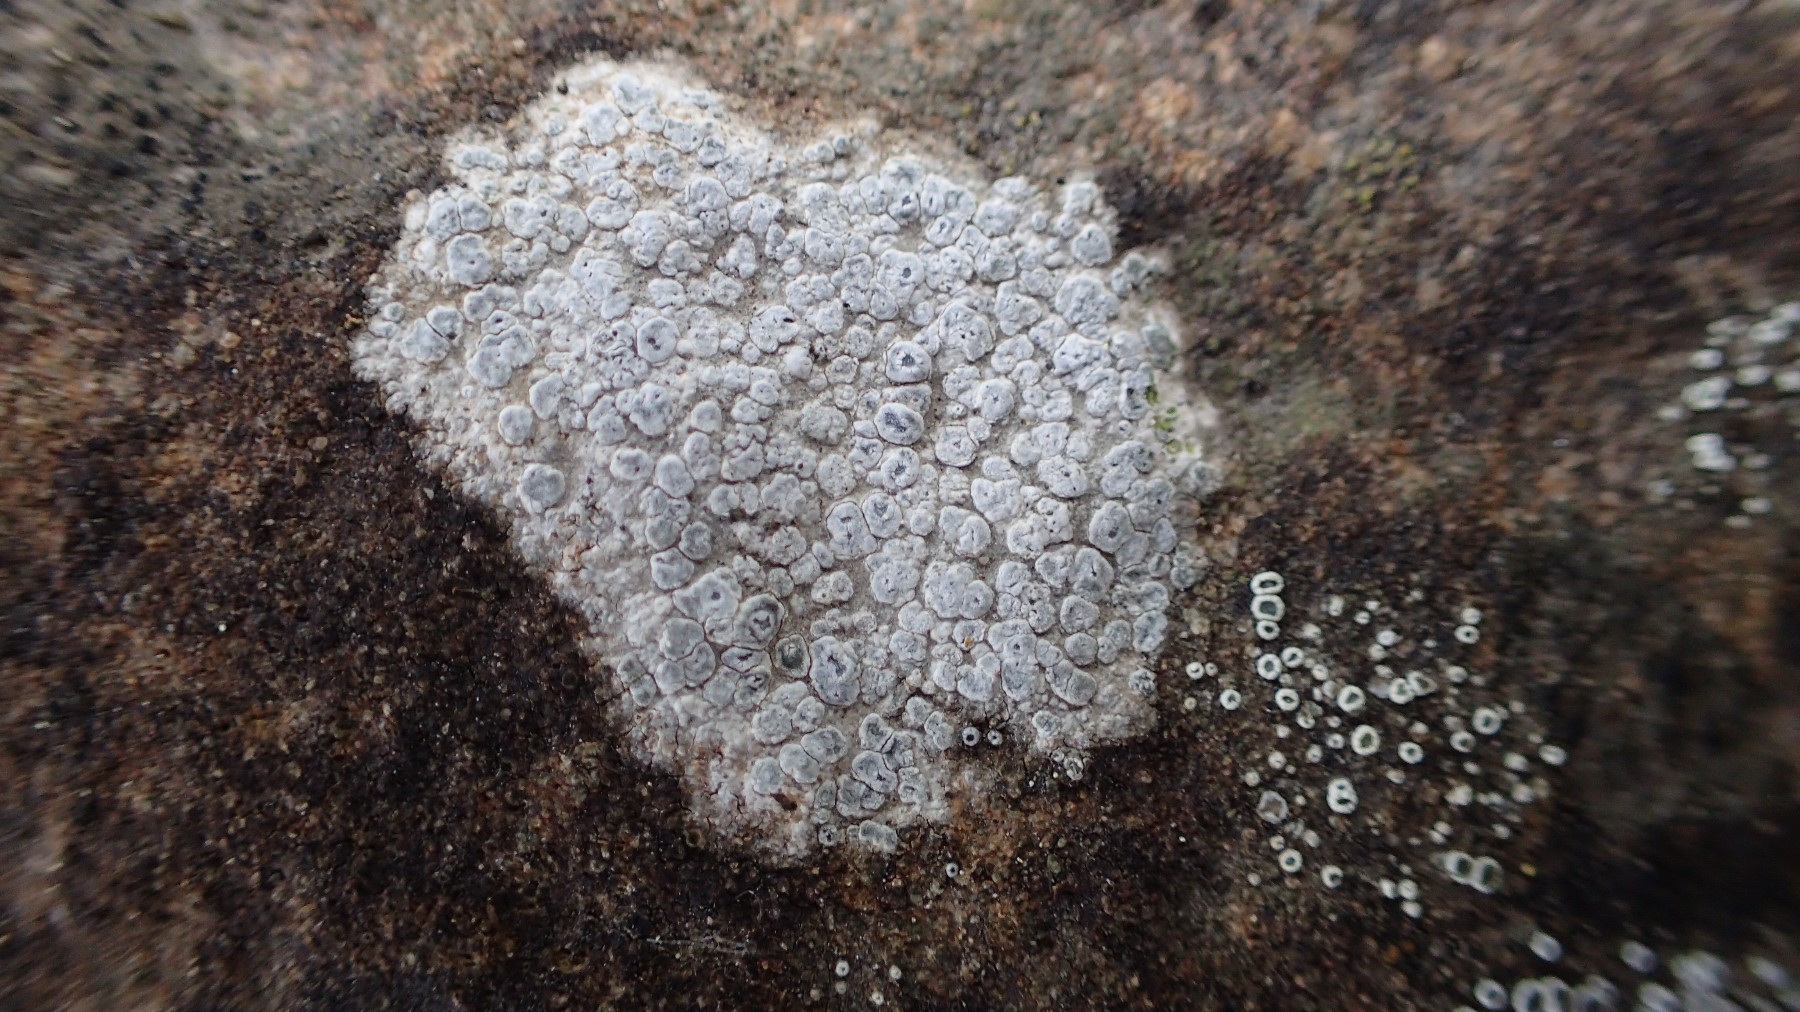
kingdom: Fungi
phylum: Ascomycota
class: Lecanoromycetes
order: Pertusariales
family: Megasporaceae
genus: Circinaria
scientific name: Circinaria contorta
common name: indviklet hulskivelav
